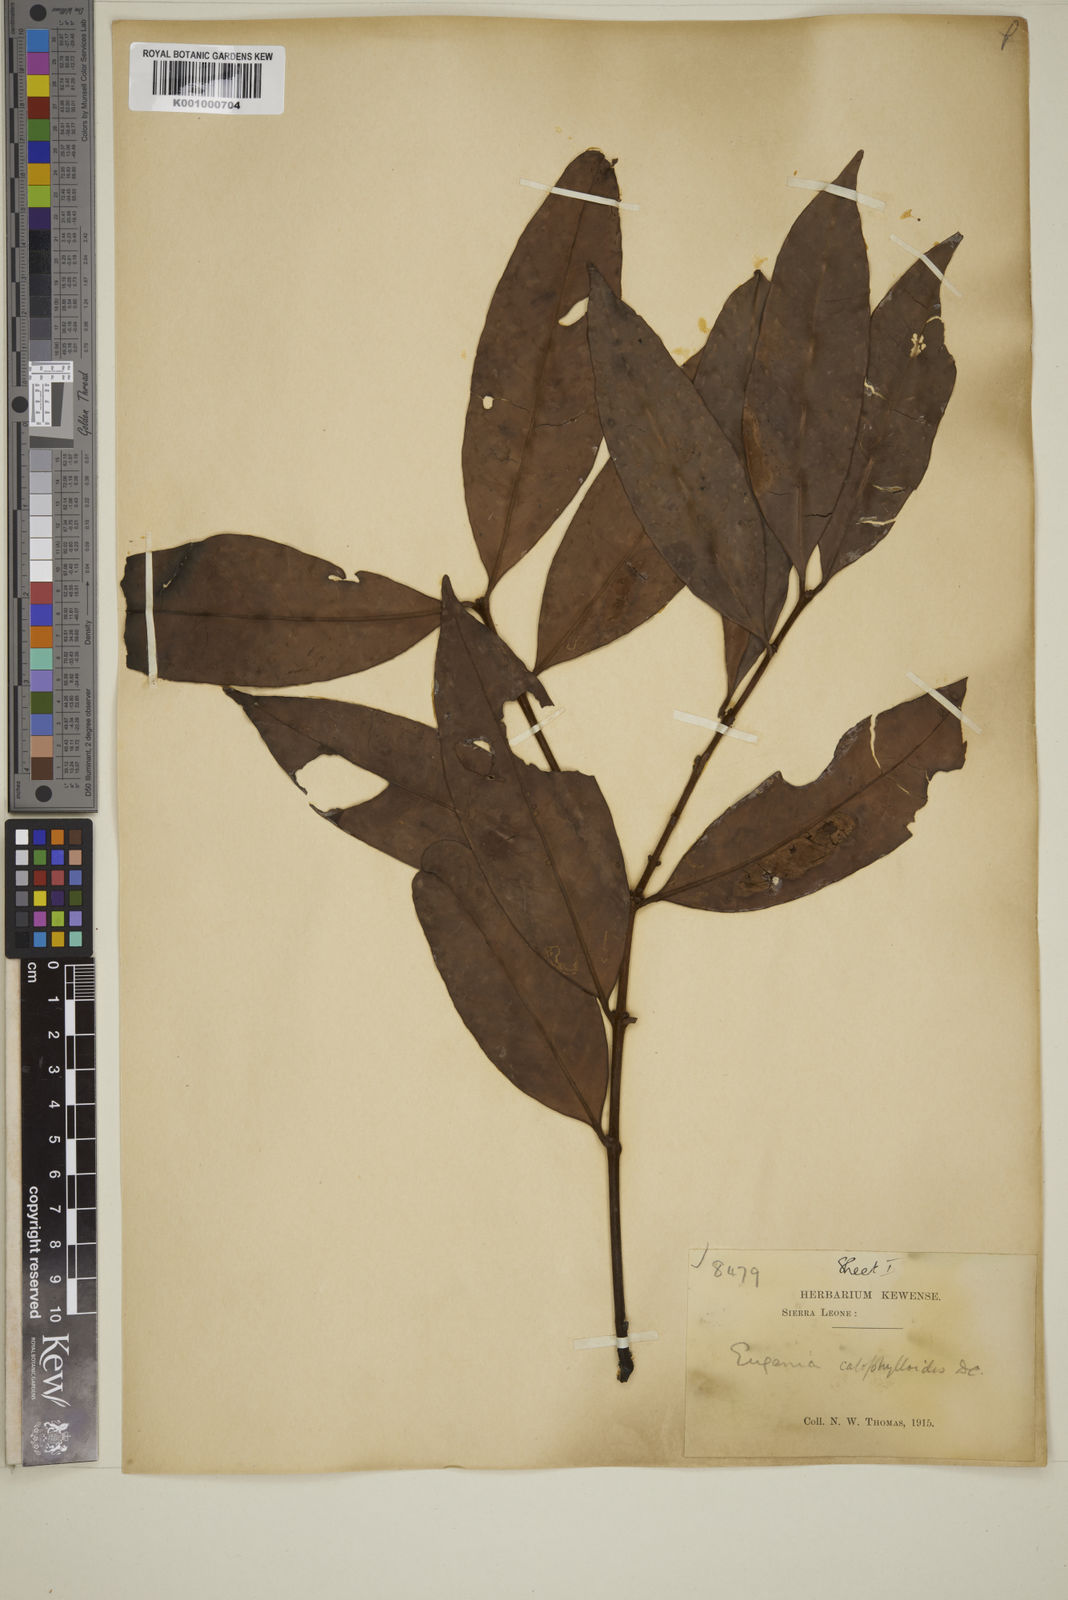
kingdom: Plantae
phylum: Tracheophyta
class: Magnoliopsida
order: Myrtales
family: Myrtaceae
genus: Eugenia
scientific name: Eugenia calophylloides
